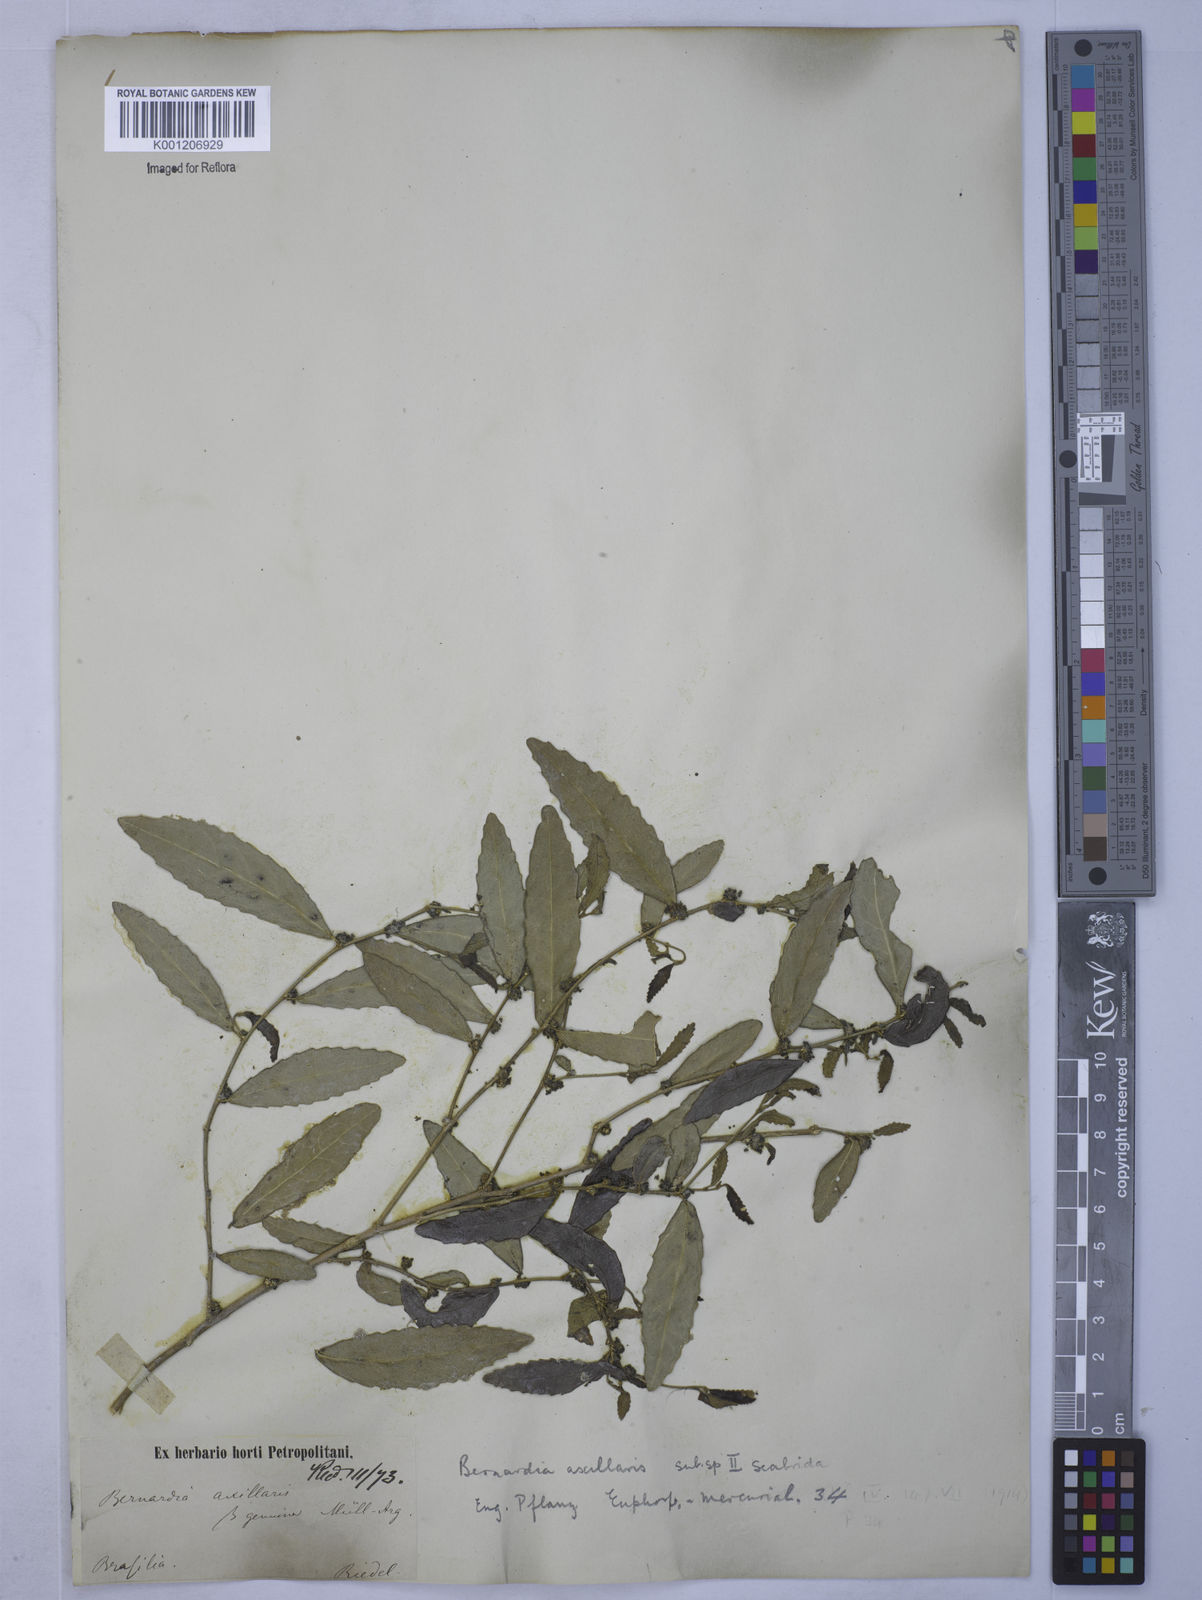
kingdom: Plantae
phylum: Tracheophyta
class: Magnoliopsida
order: Malpighiales
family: Euphorbiaceae
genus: Bernardia
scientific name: Bernardia
